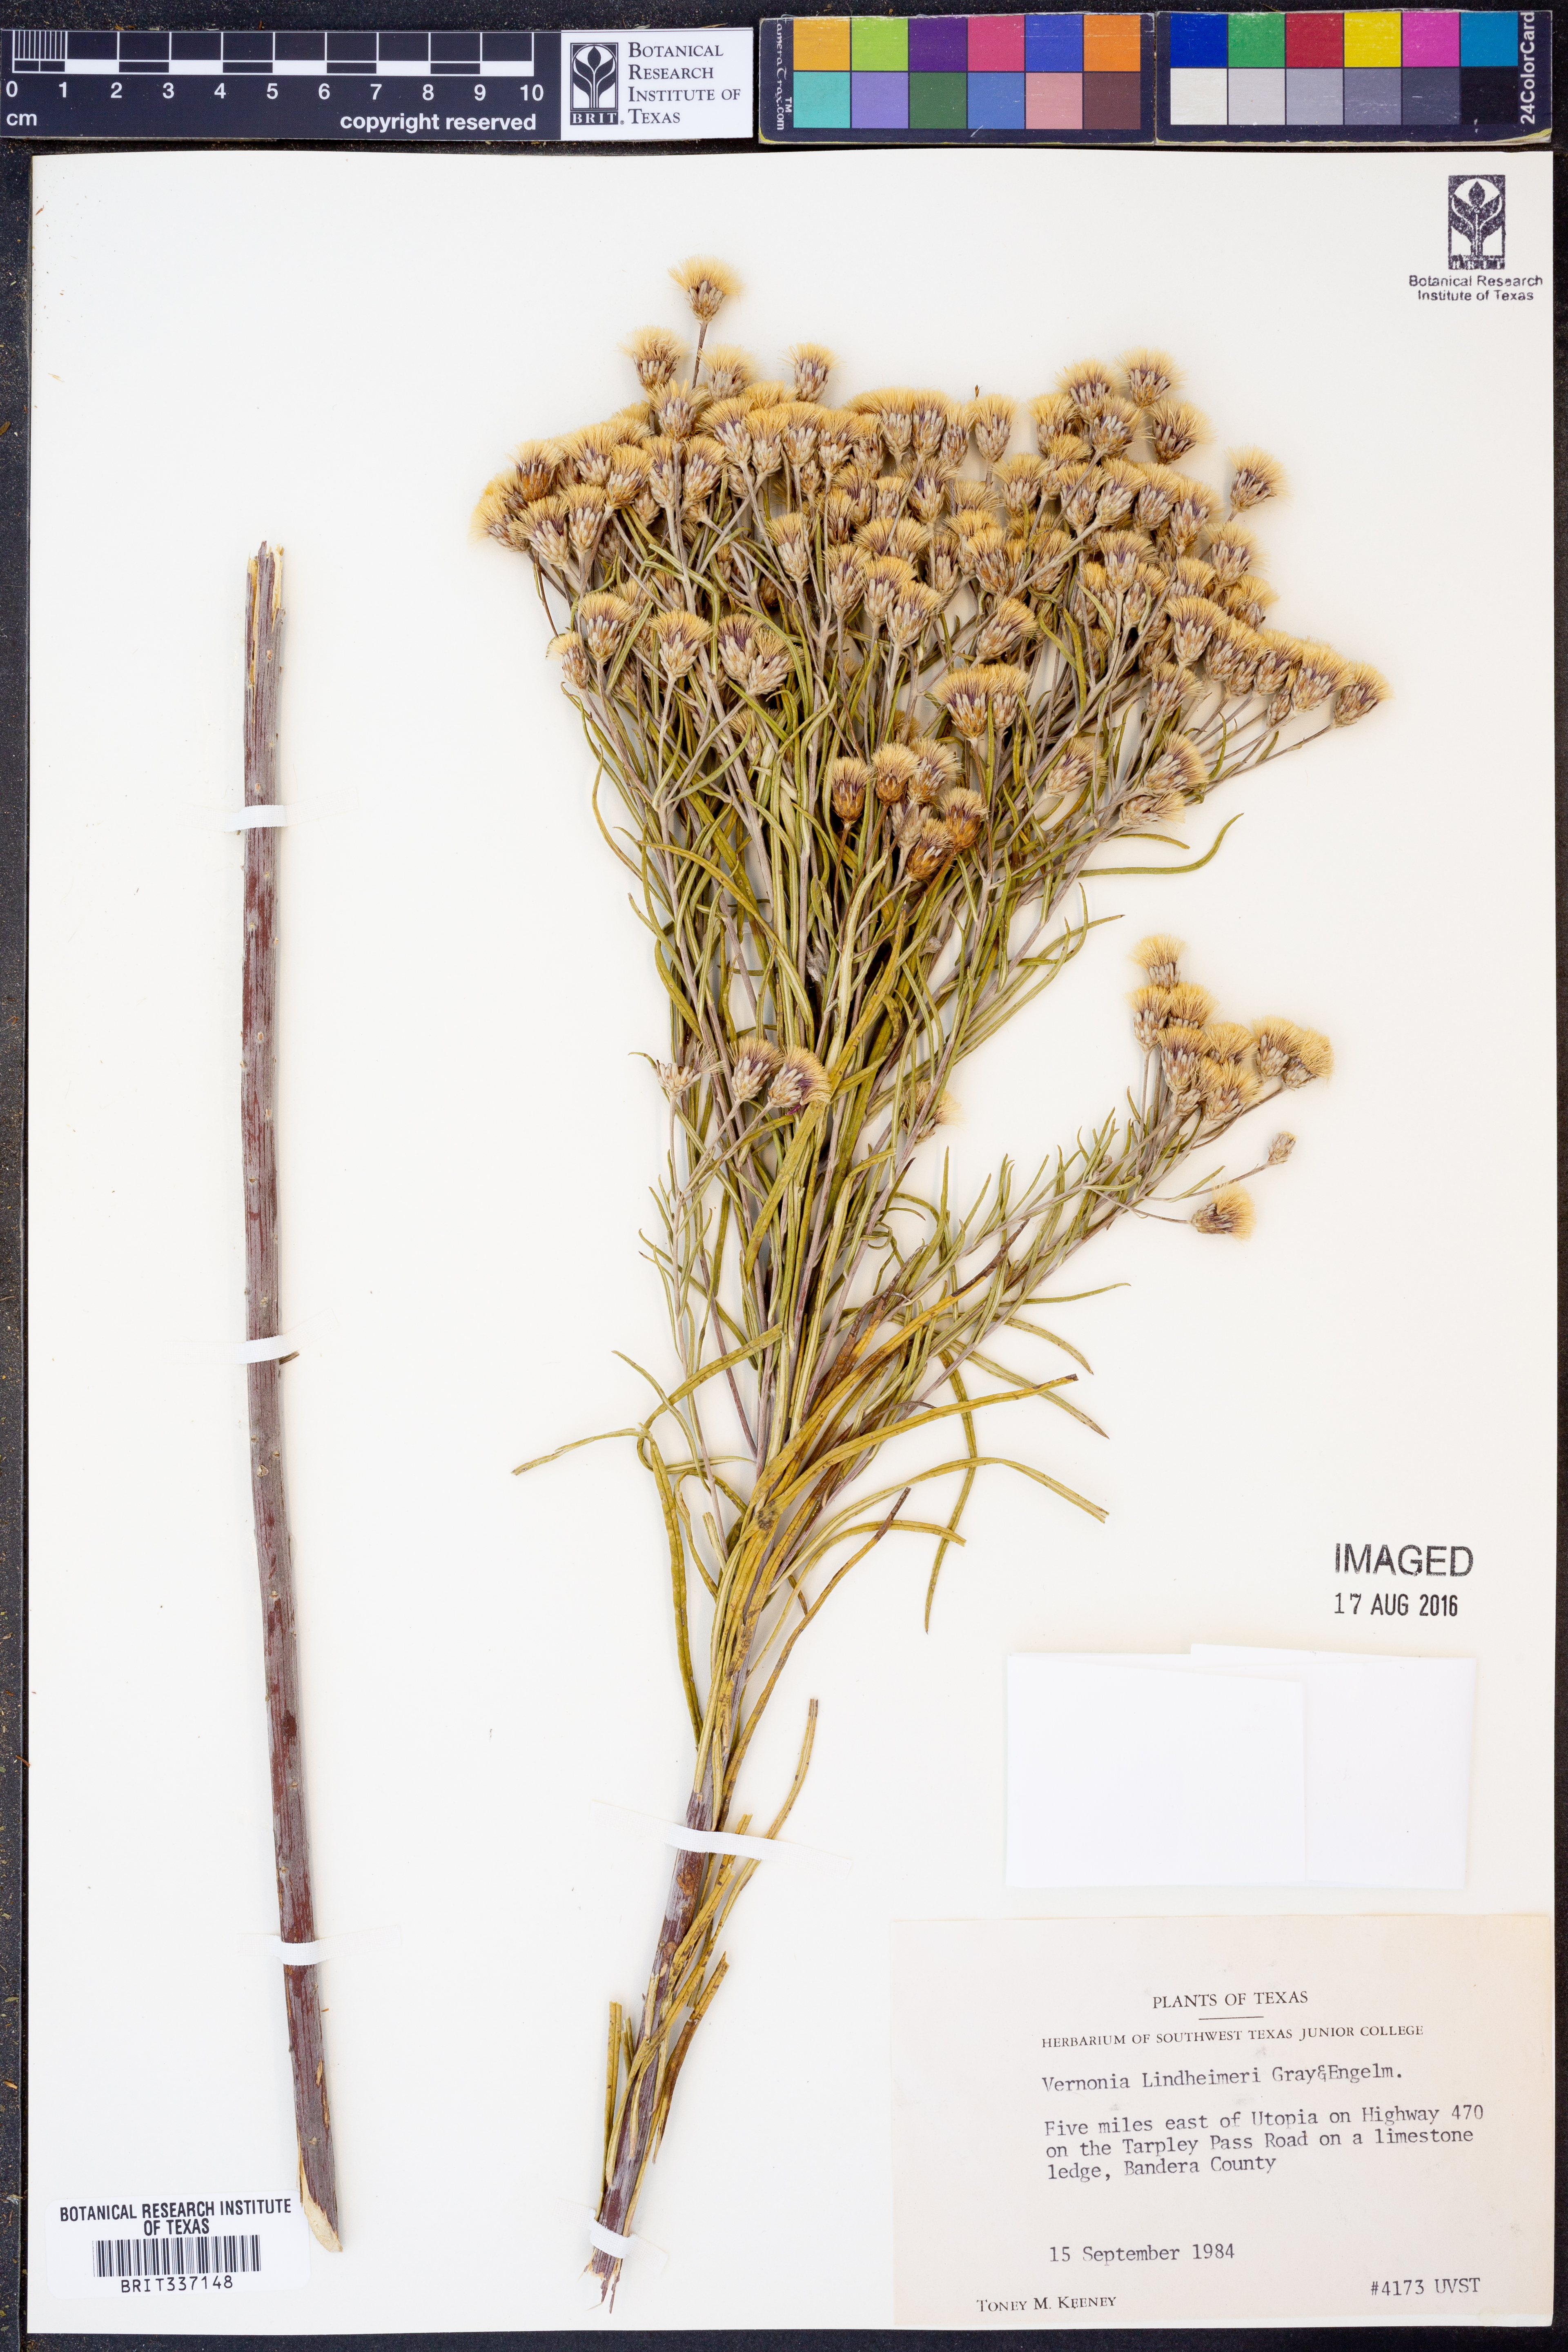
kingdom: Plantae
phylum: Tracheophyta
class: Magnoliopsida
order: Asterales
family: Asteraceae
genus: Vernonia
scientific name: Vernonia lindheimeri
